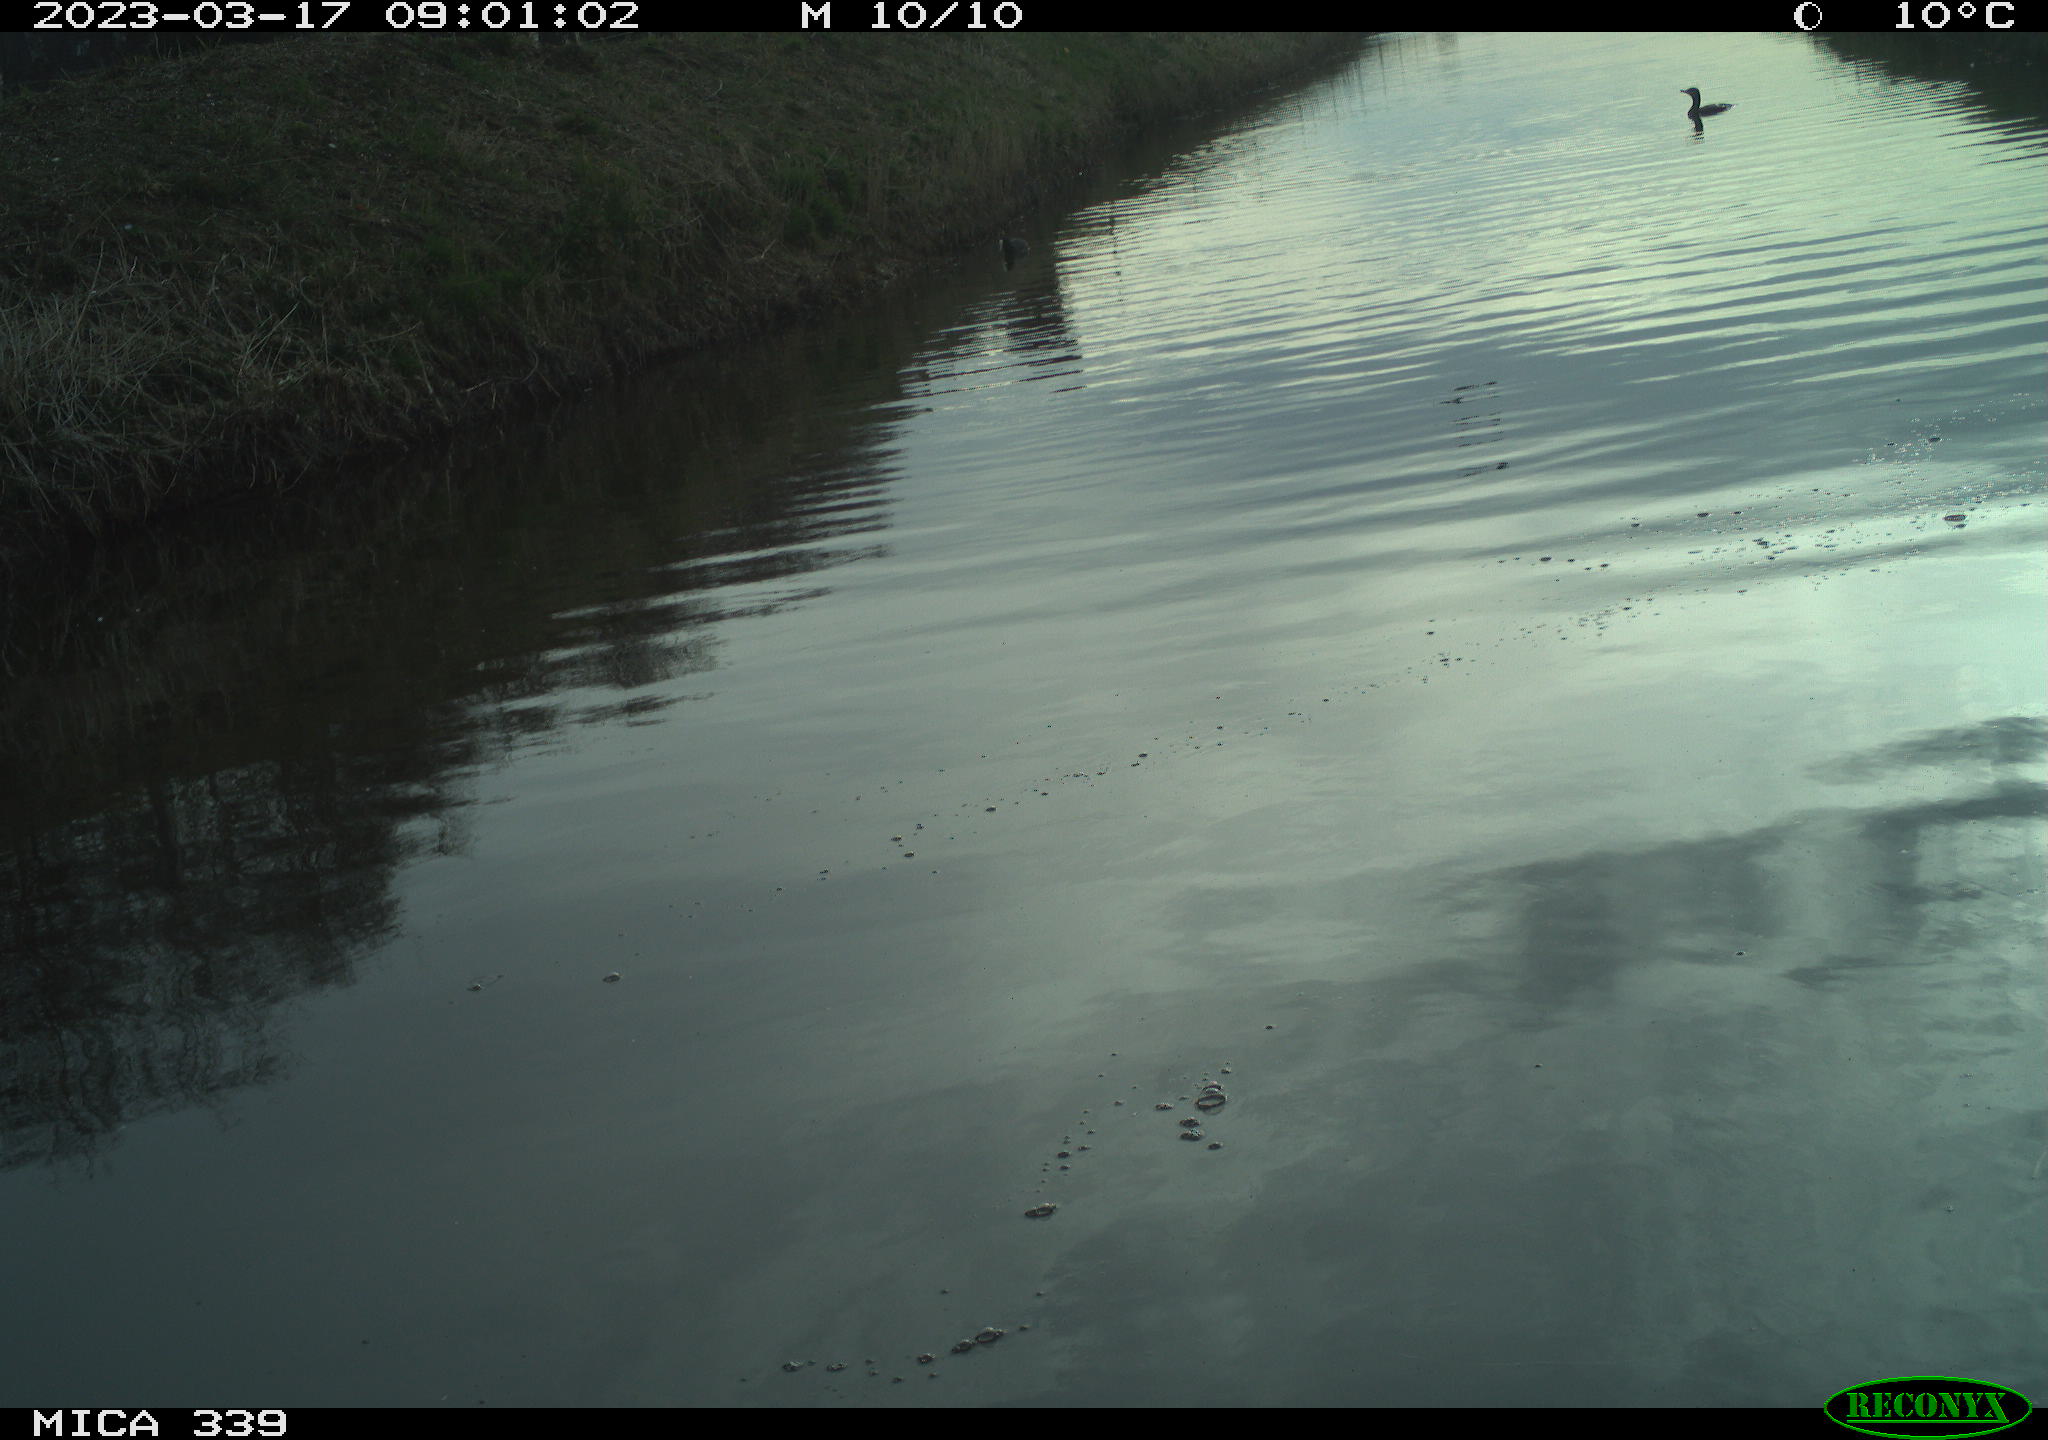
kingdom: Animalia
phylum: Chordata
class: Aves
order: Pelecaniformes
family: Ardeidae
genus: Ardea
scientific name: Ardea cinerea
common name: Grey heron
